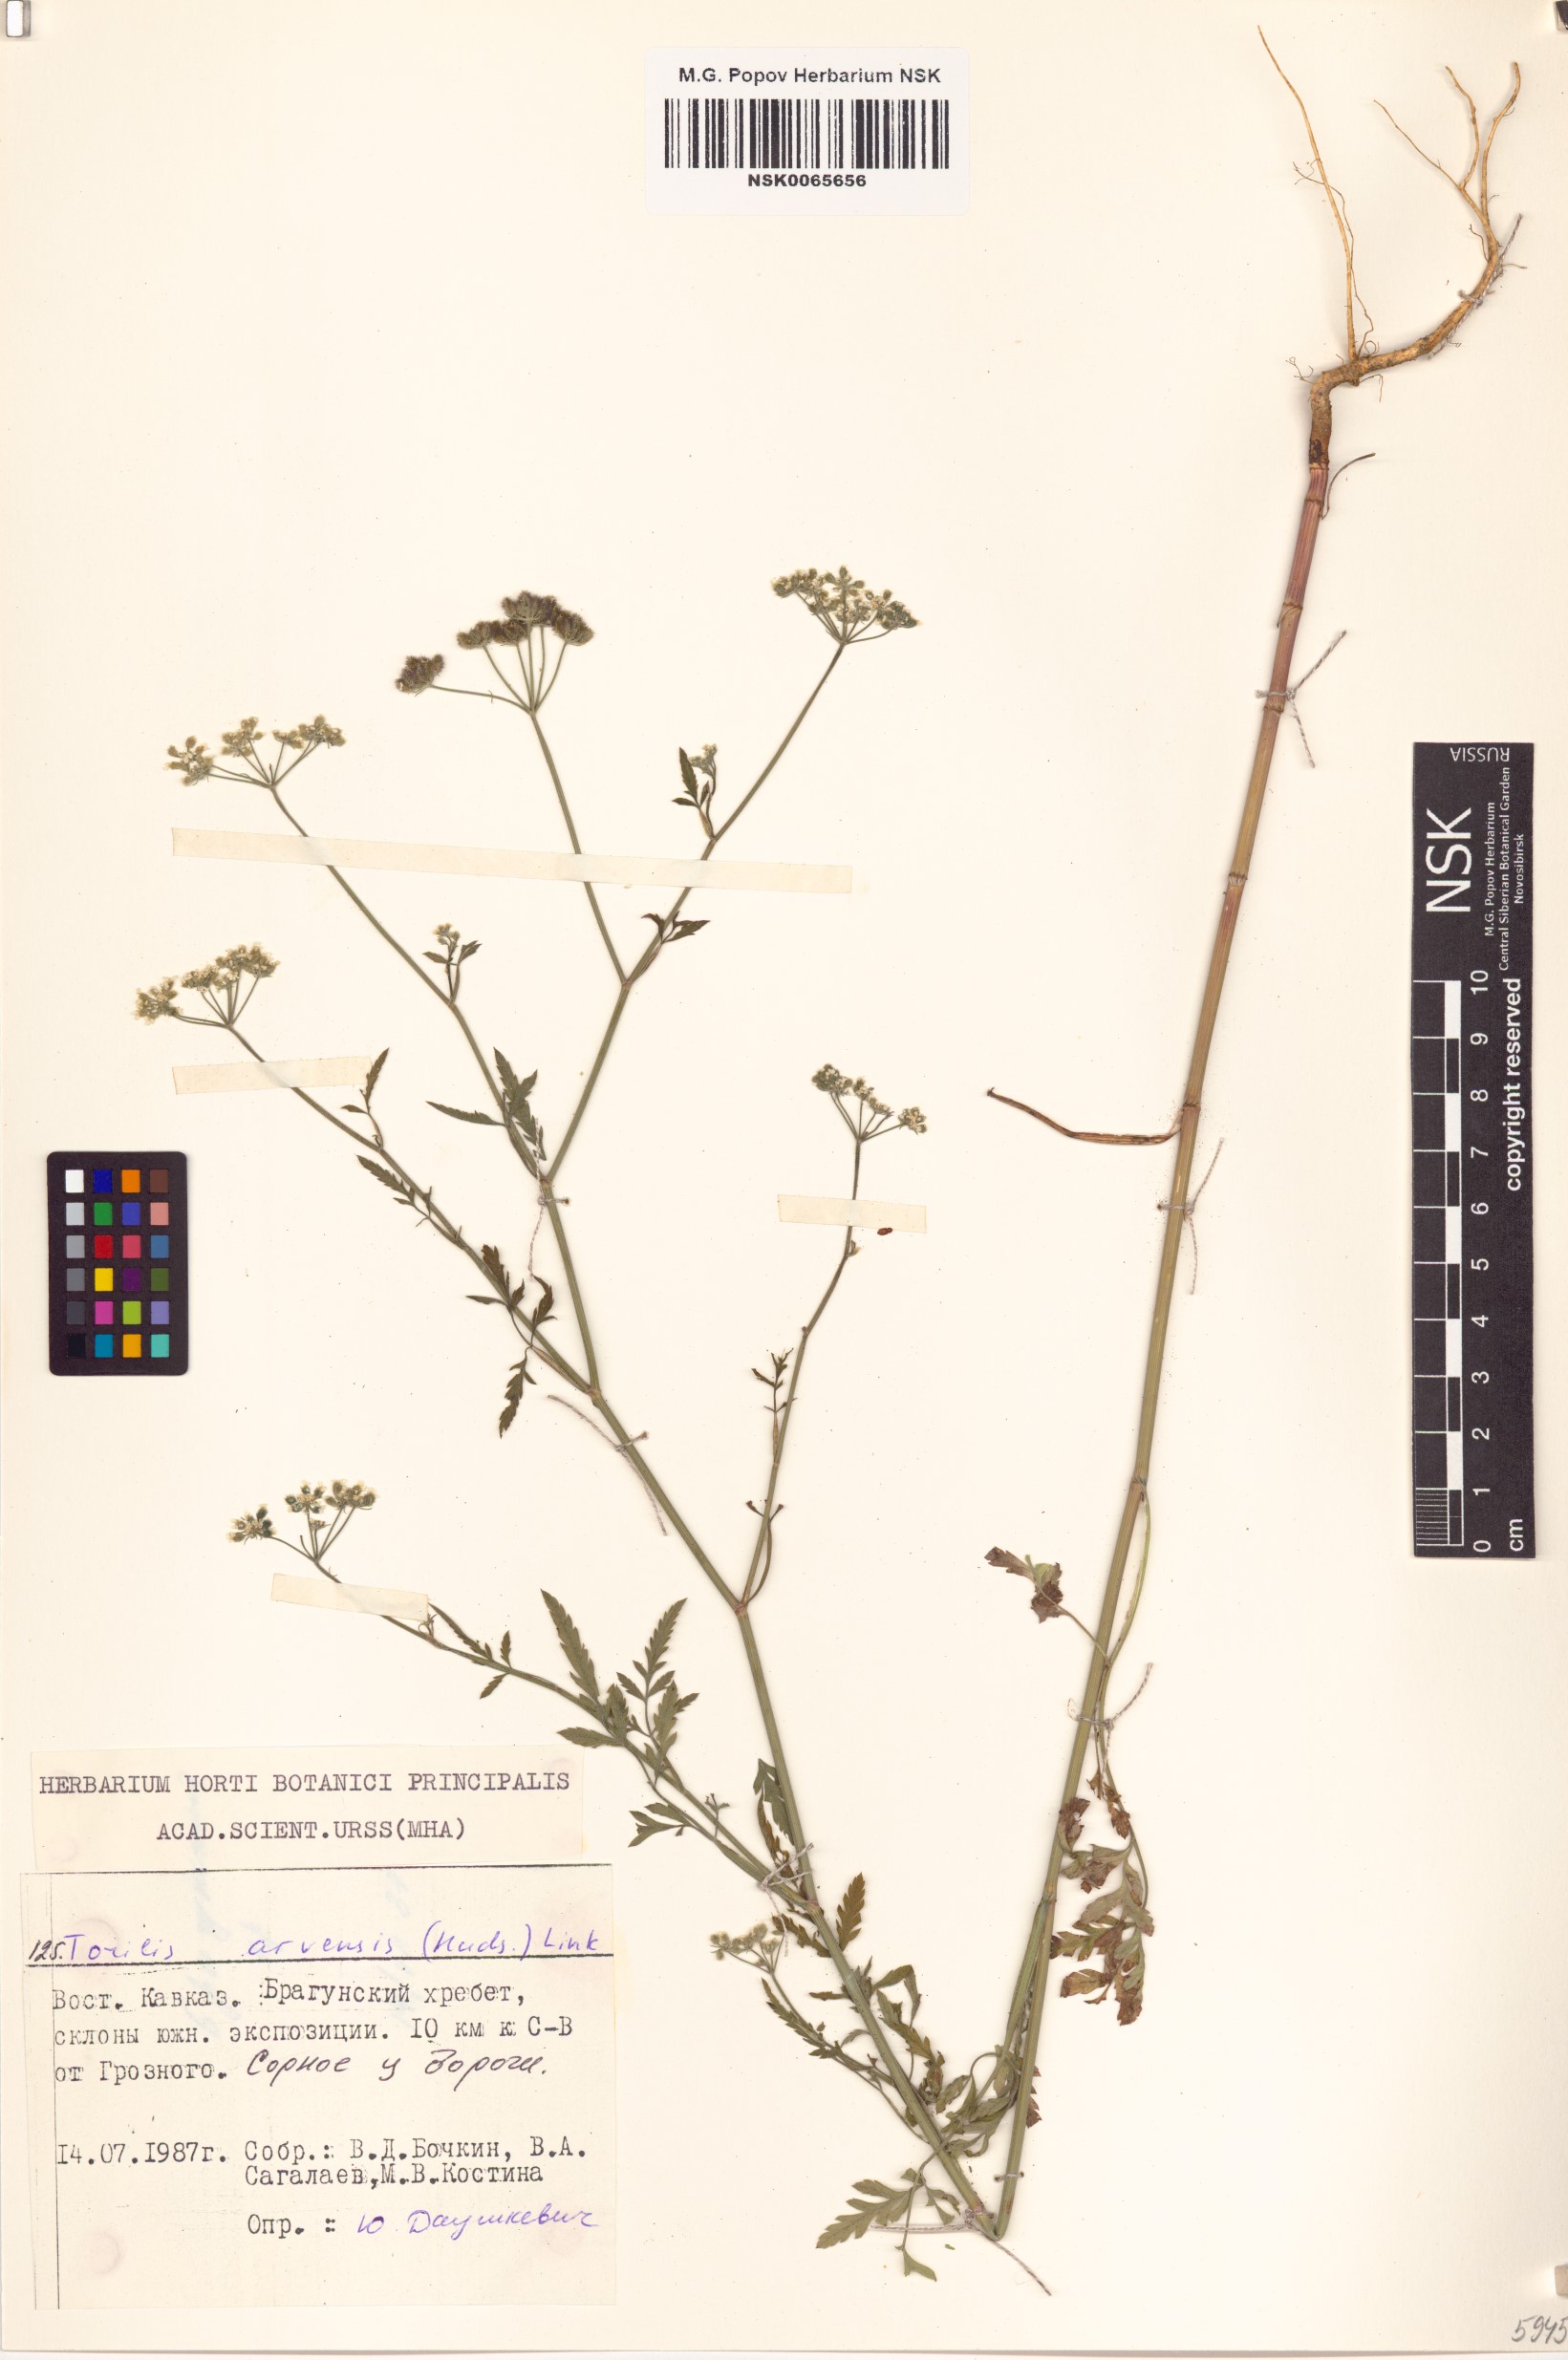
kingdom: Plantae
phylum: Tracheophyta
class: Magnoliopsida
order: Apiales
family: Apiaceae
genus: Torilis
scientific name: Torilis arvensis
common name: Spreading hedge-parsley
